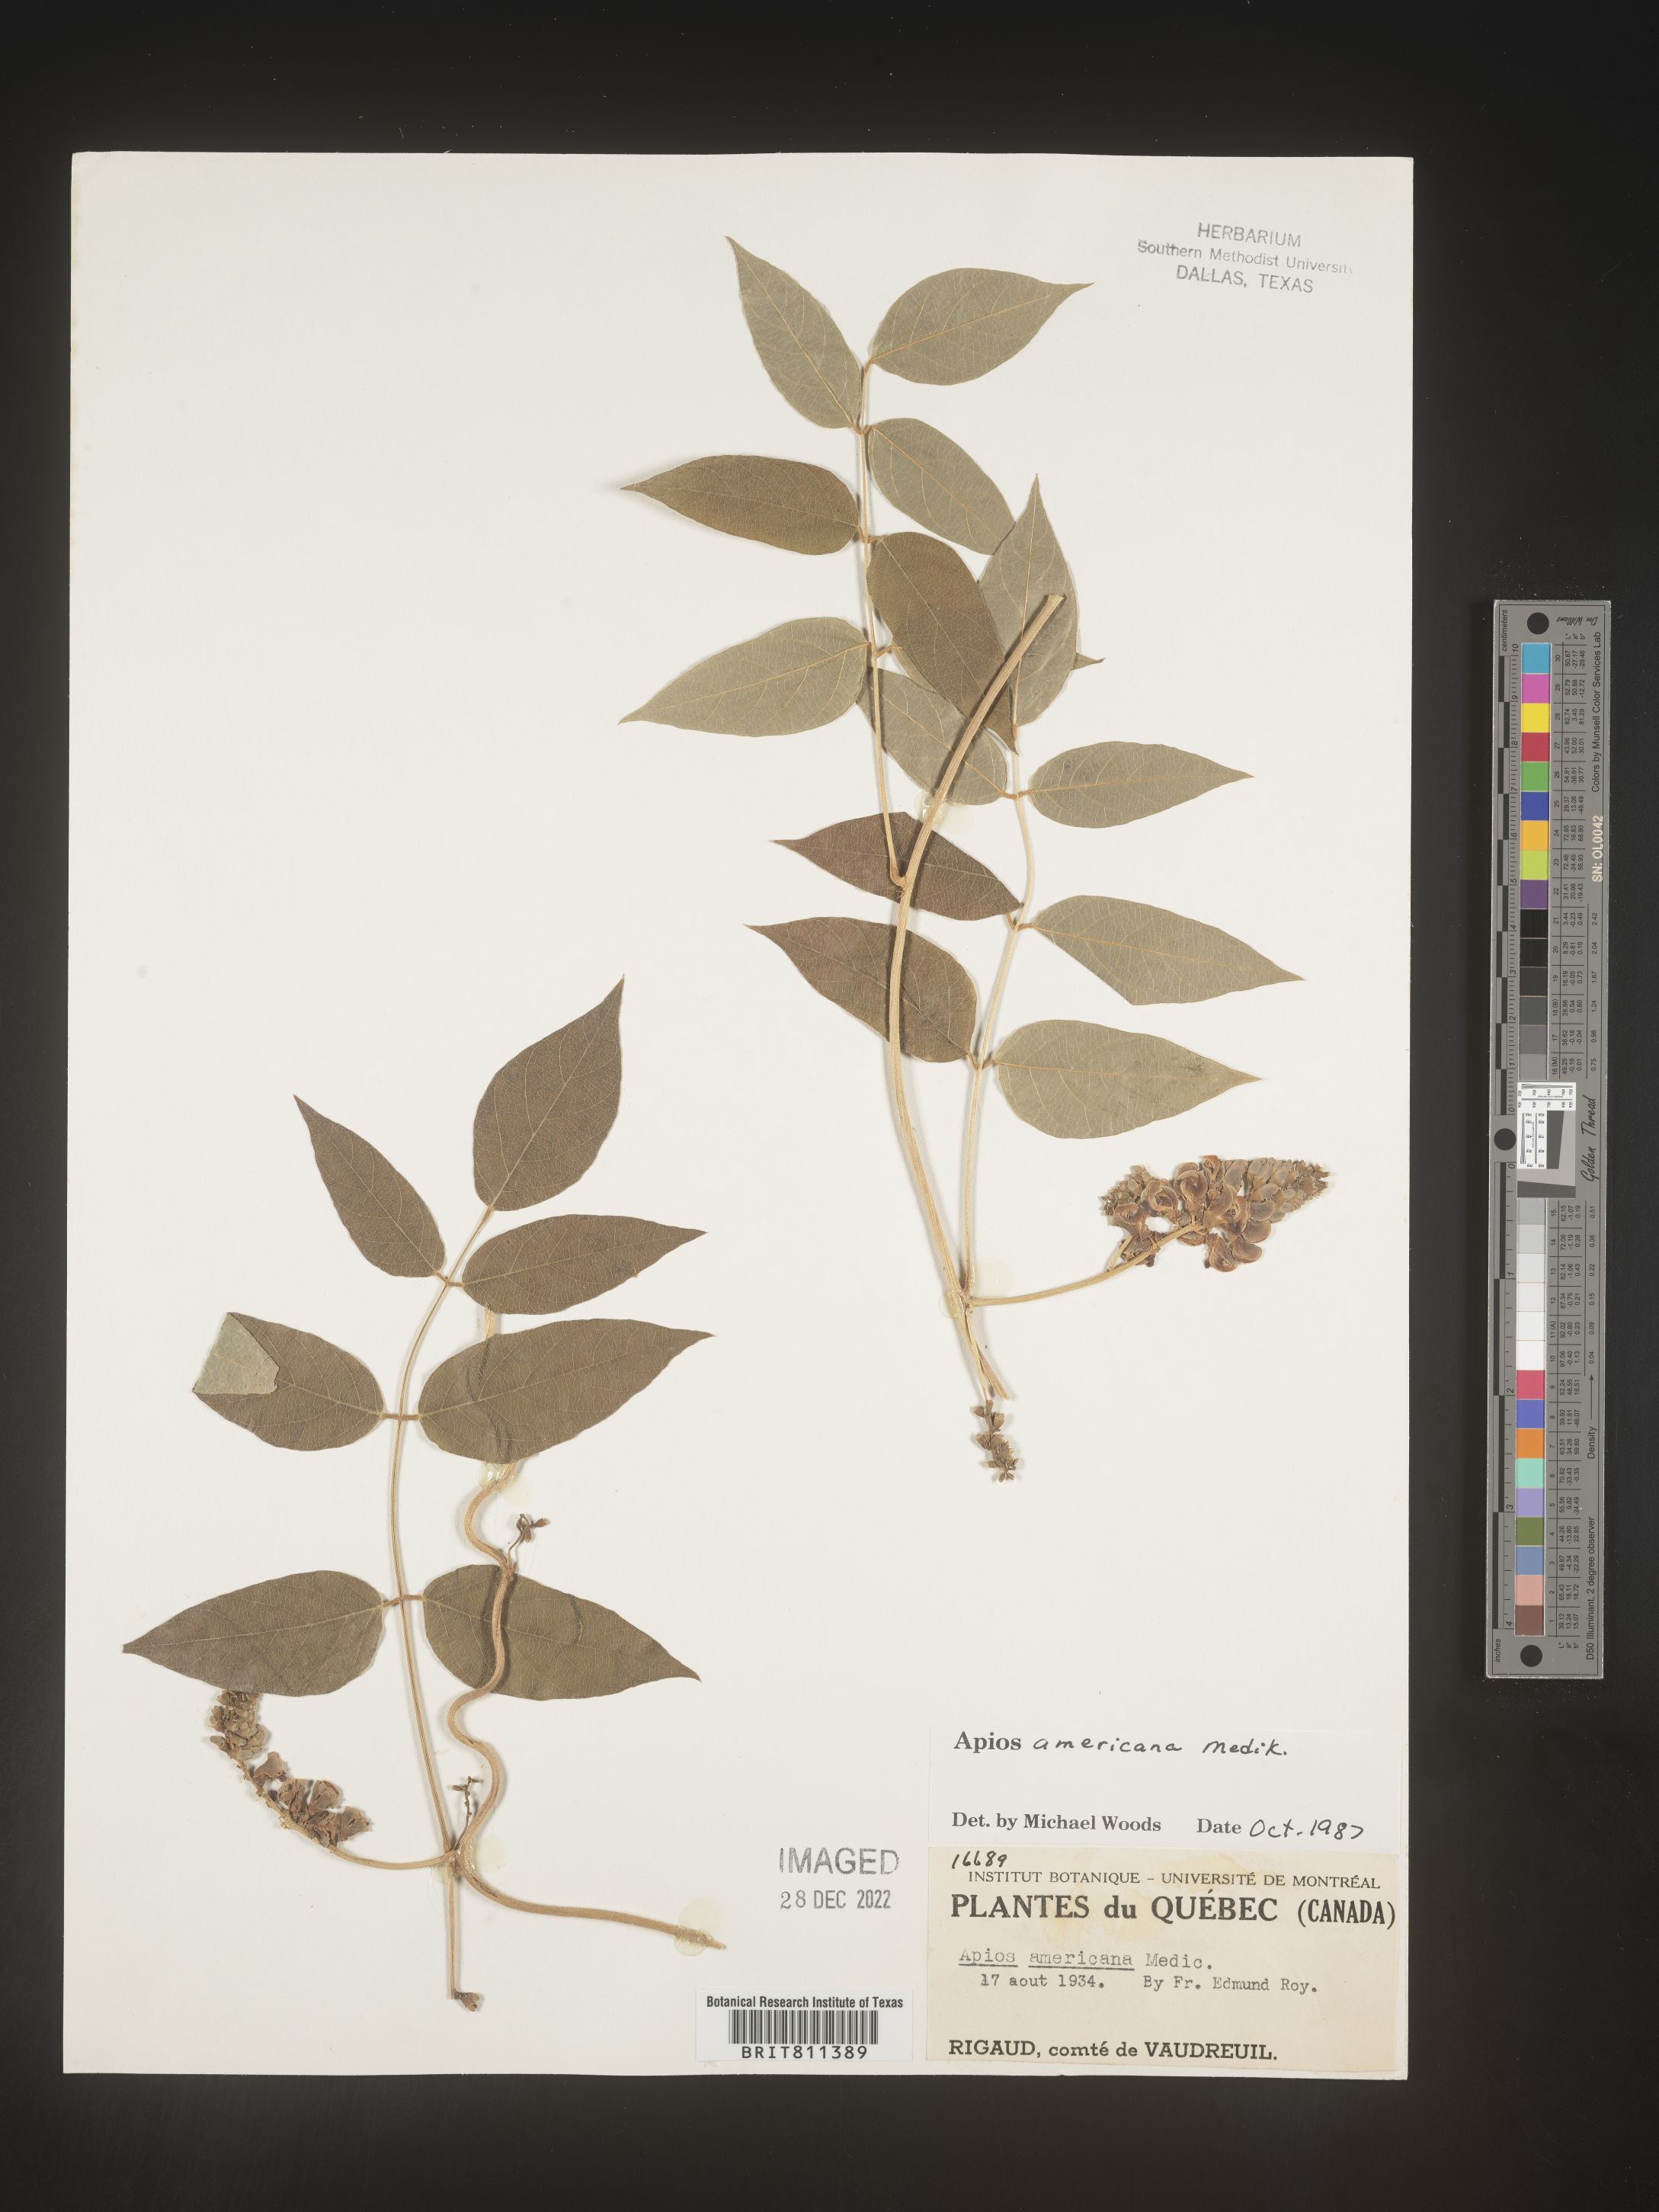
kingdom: Plantae
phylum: Tracheophyta
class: Magnoliopsida
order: Fabales
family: Fabaceae
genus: Apios
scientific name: Apios americana
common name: American potato-bean
